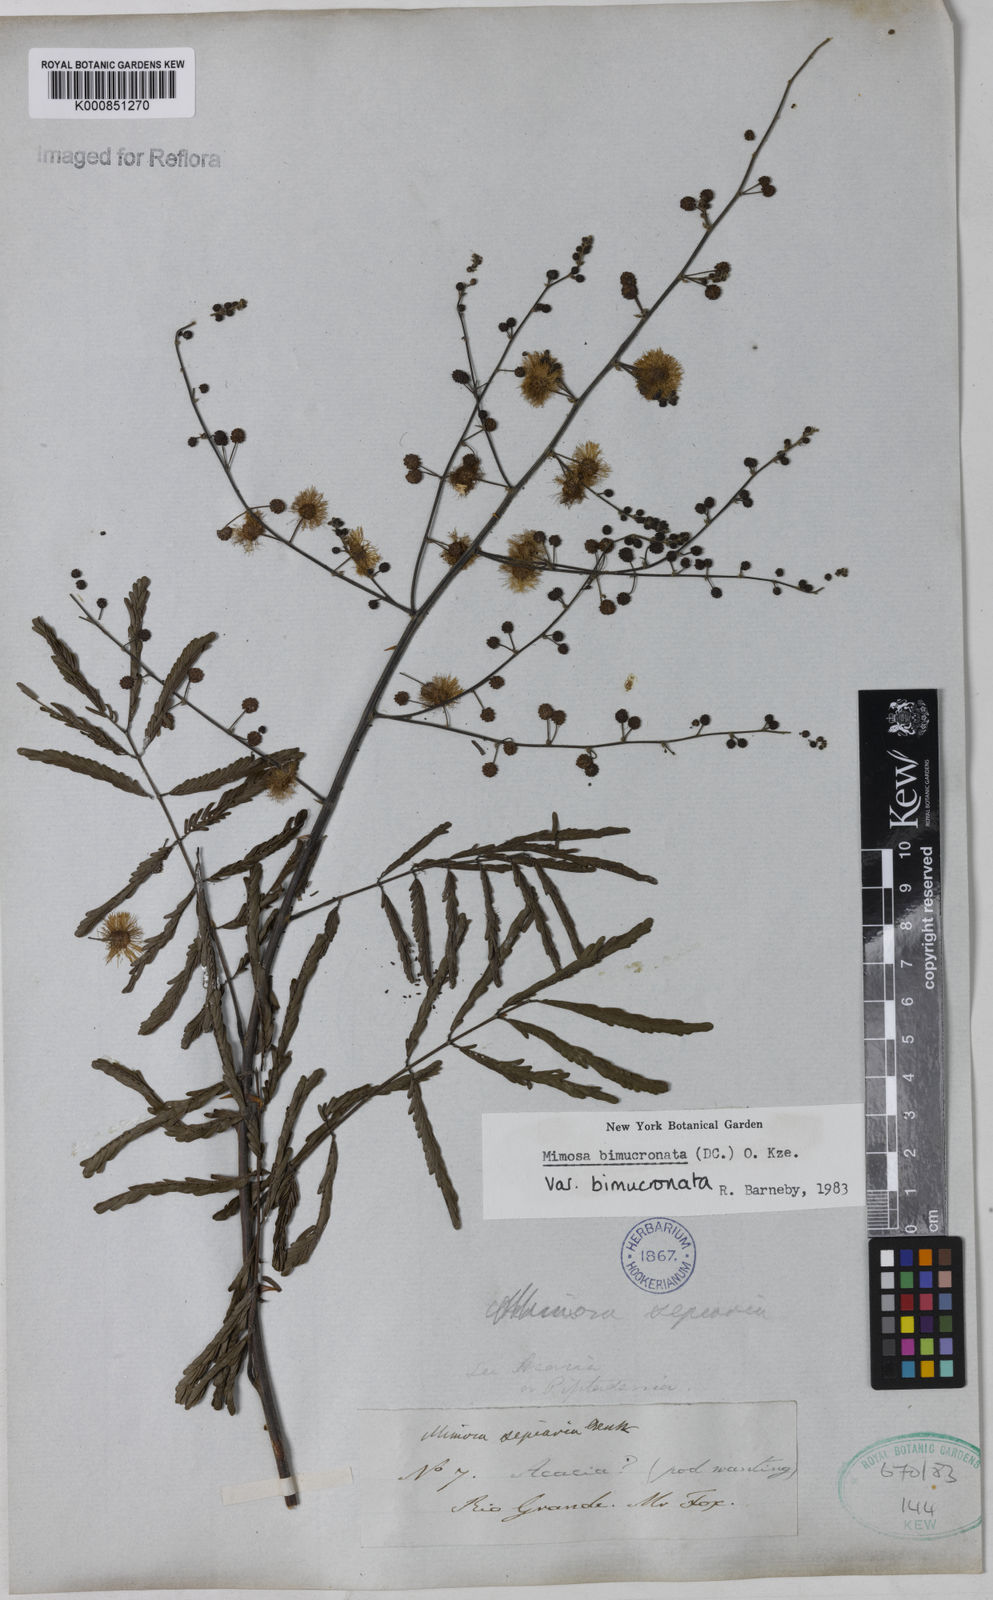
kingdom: Plantae
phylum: Tracheophyta
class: Magnoliopsida
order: Fabales
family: Fabaceae
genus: Mimosa
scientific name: Mimosa bimucronata
